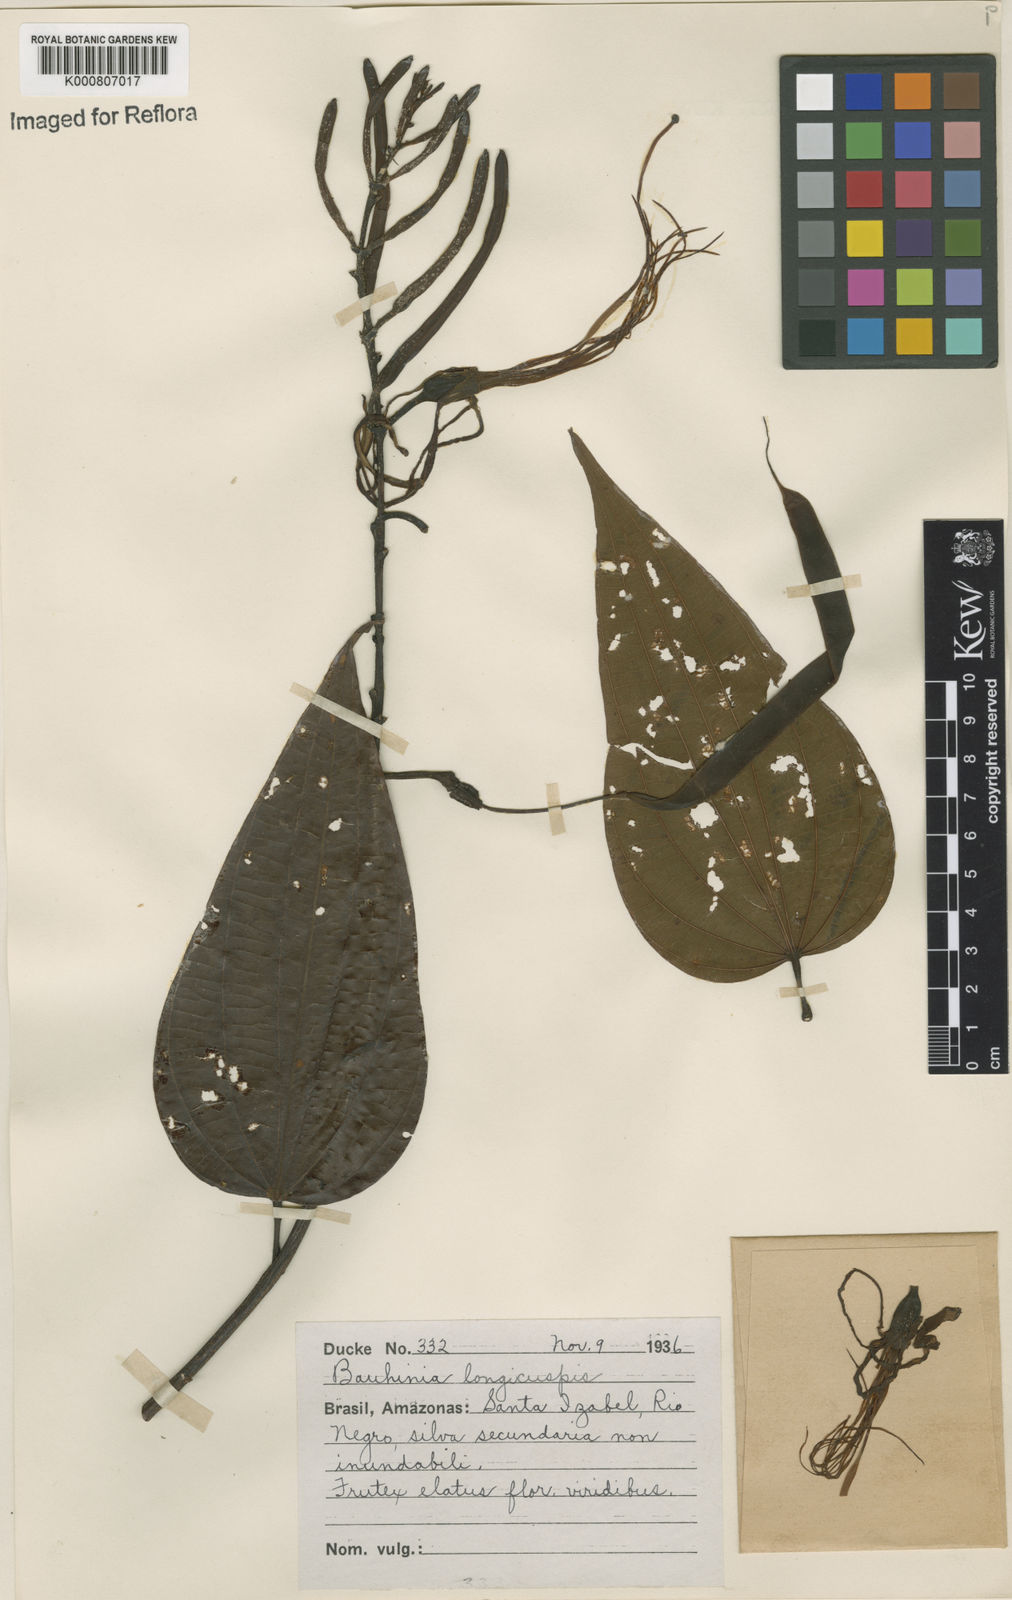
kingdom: Plantae
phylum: Tracheophyta
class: Magnoliopsida
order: Fabales
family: Fabaceae
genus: Bauhinia
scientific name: Bauhinia longicuspis
